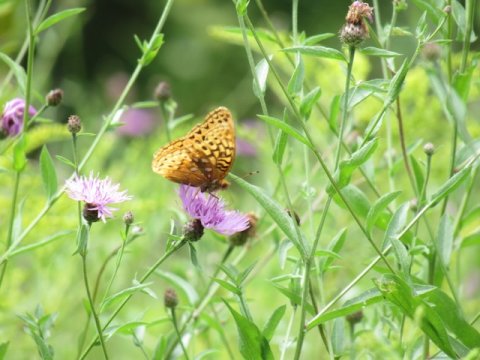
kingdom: Animalia
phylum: Arthropoda
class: Insecta
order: Lepidoptera
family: Nymphalidae
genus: Speyeria
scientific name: Speyeria cybele
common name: Great Spangled Fritillary
